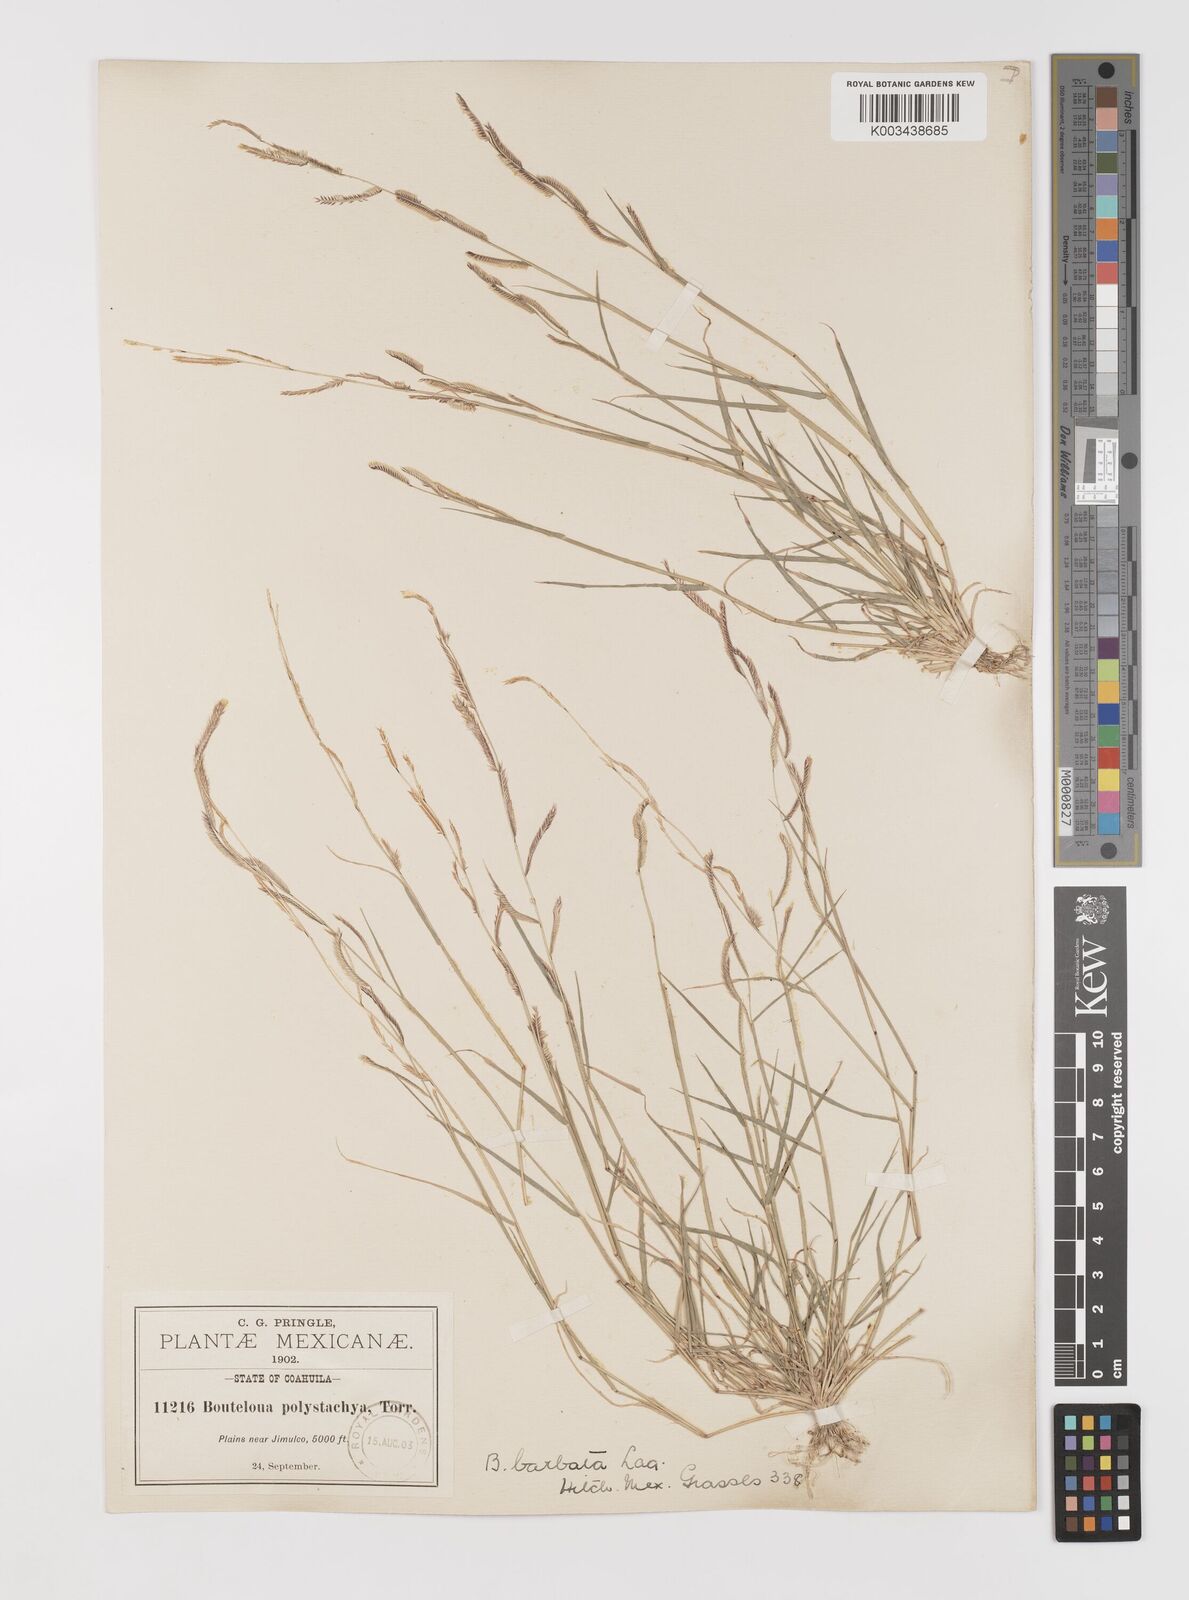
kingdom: Plantae
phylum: Tracheophyta
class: Liliopsida
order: Poales
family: Poaceae
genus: Bouteloua
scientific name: Bouteloua
